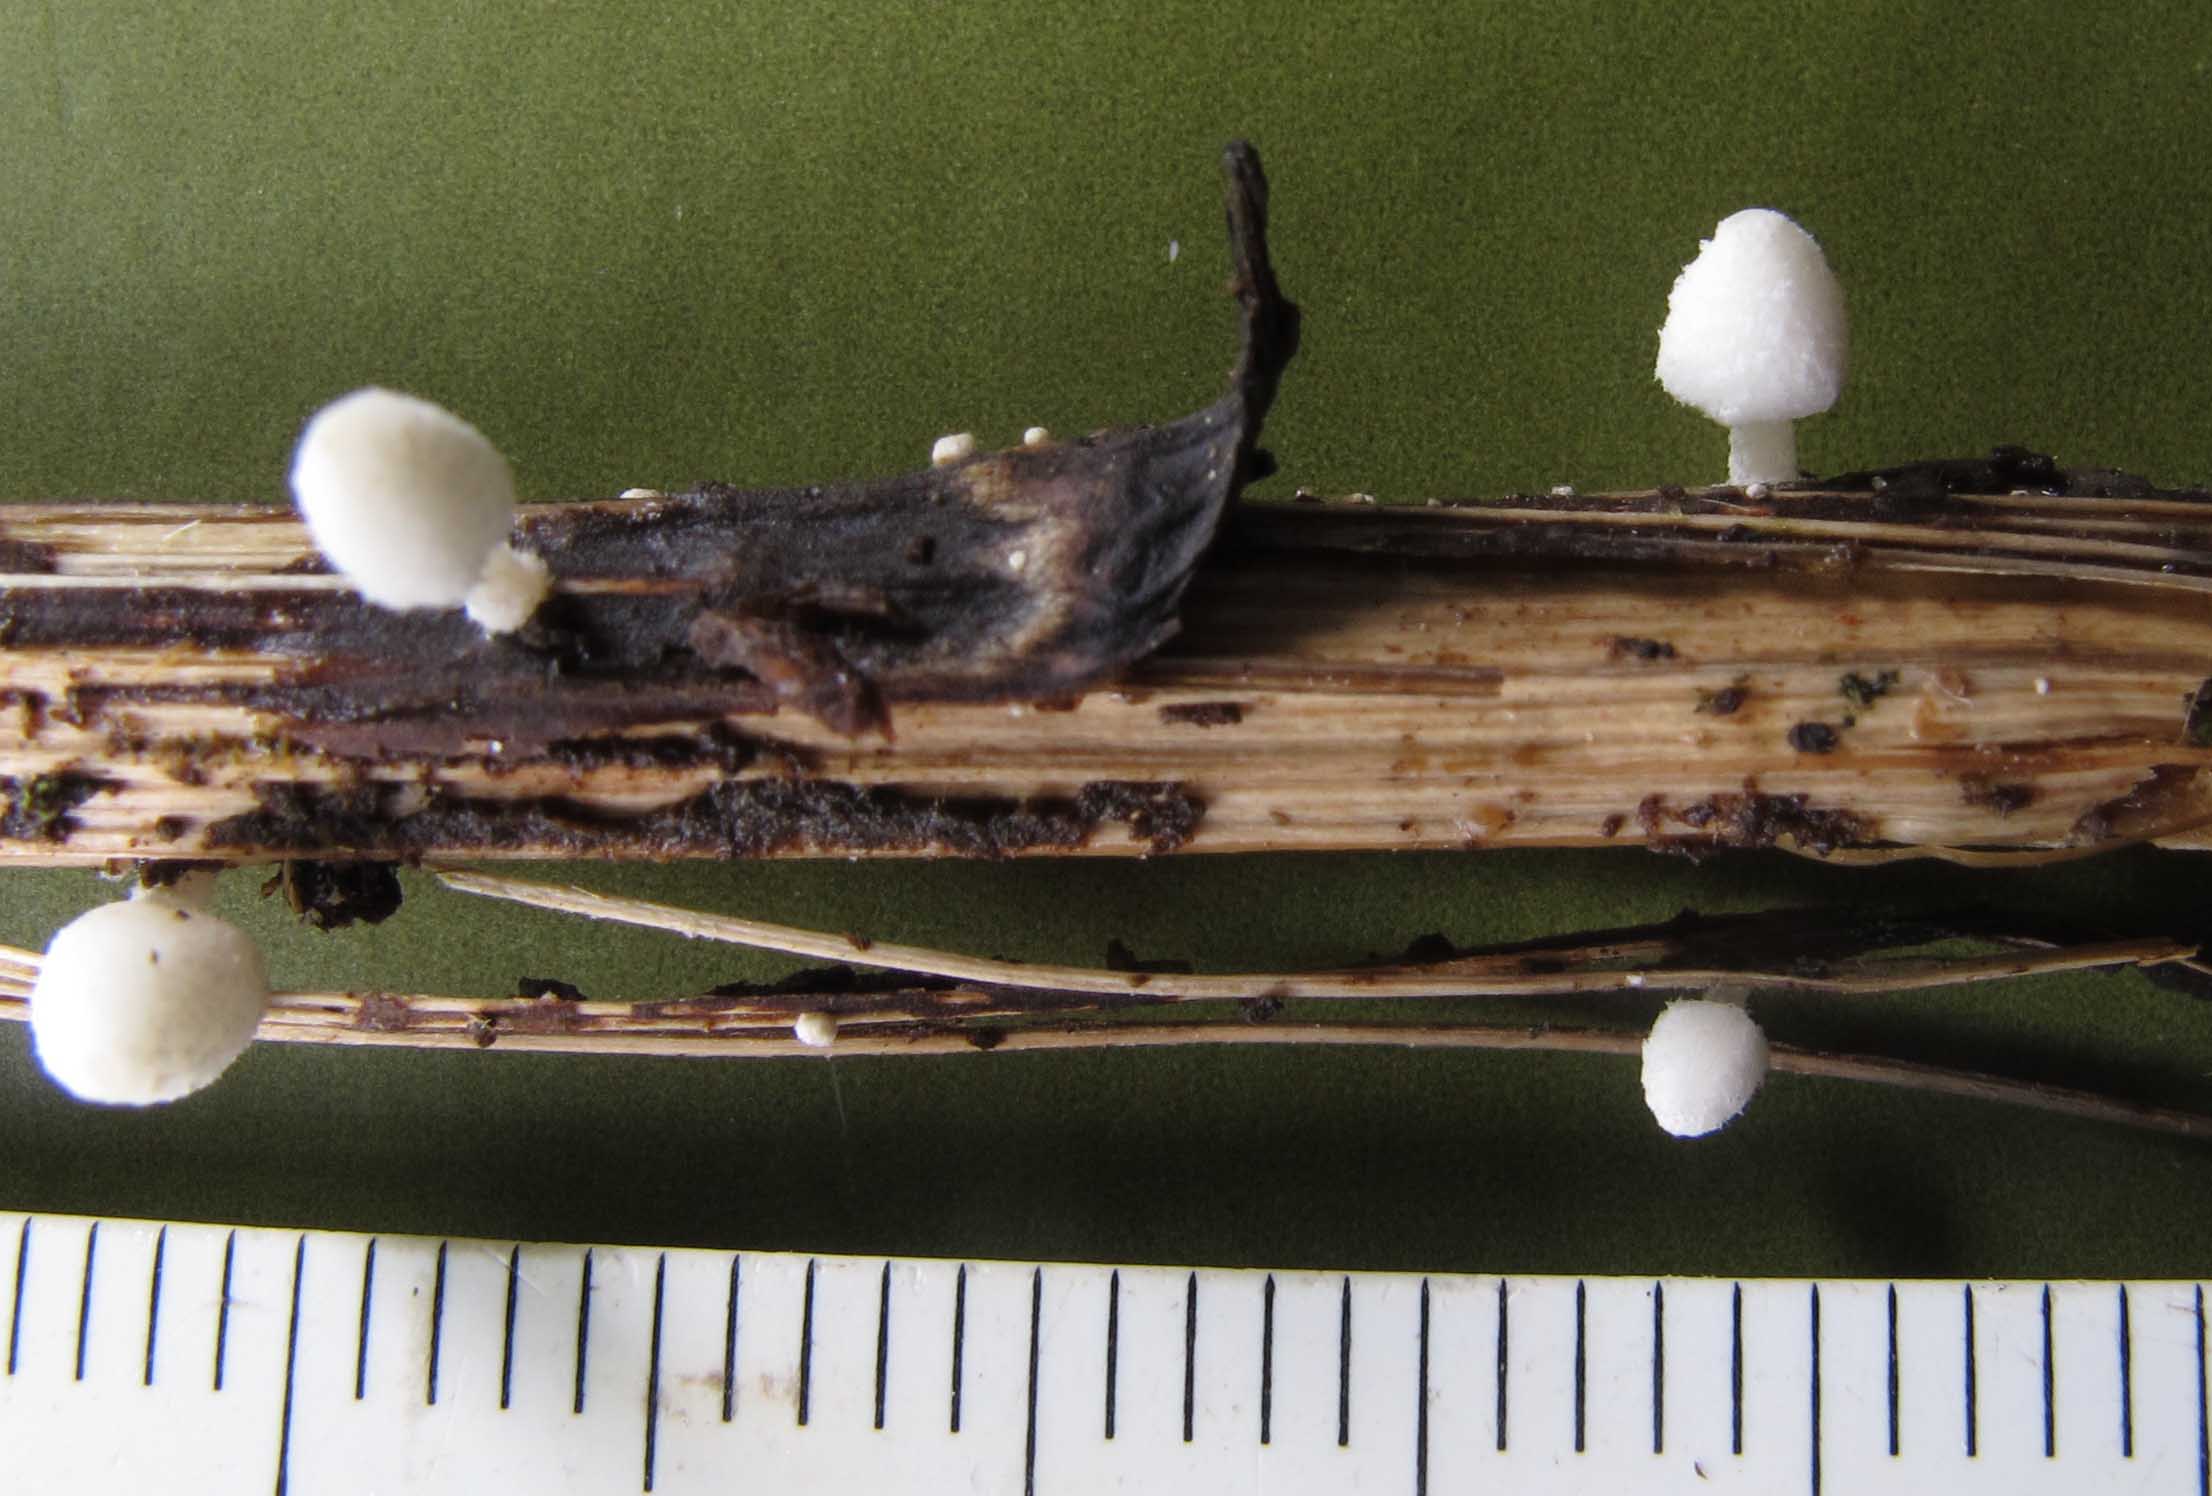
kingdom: Fungi
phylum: Basidiomycota
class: Agaricomycetes
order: Agaricales
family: Psathyrellaceae
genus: Coprinopsis
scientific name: Coprinopsis urticicola
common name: urte-blækhat
